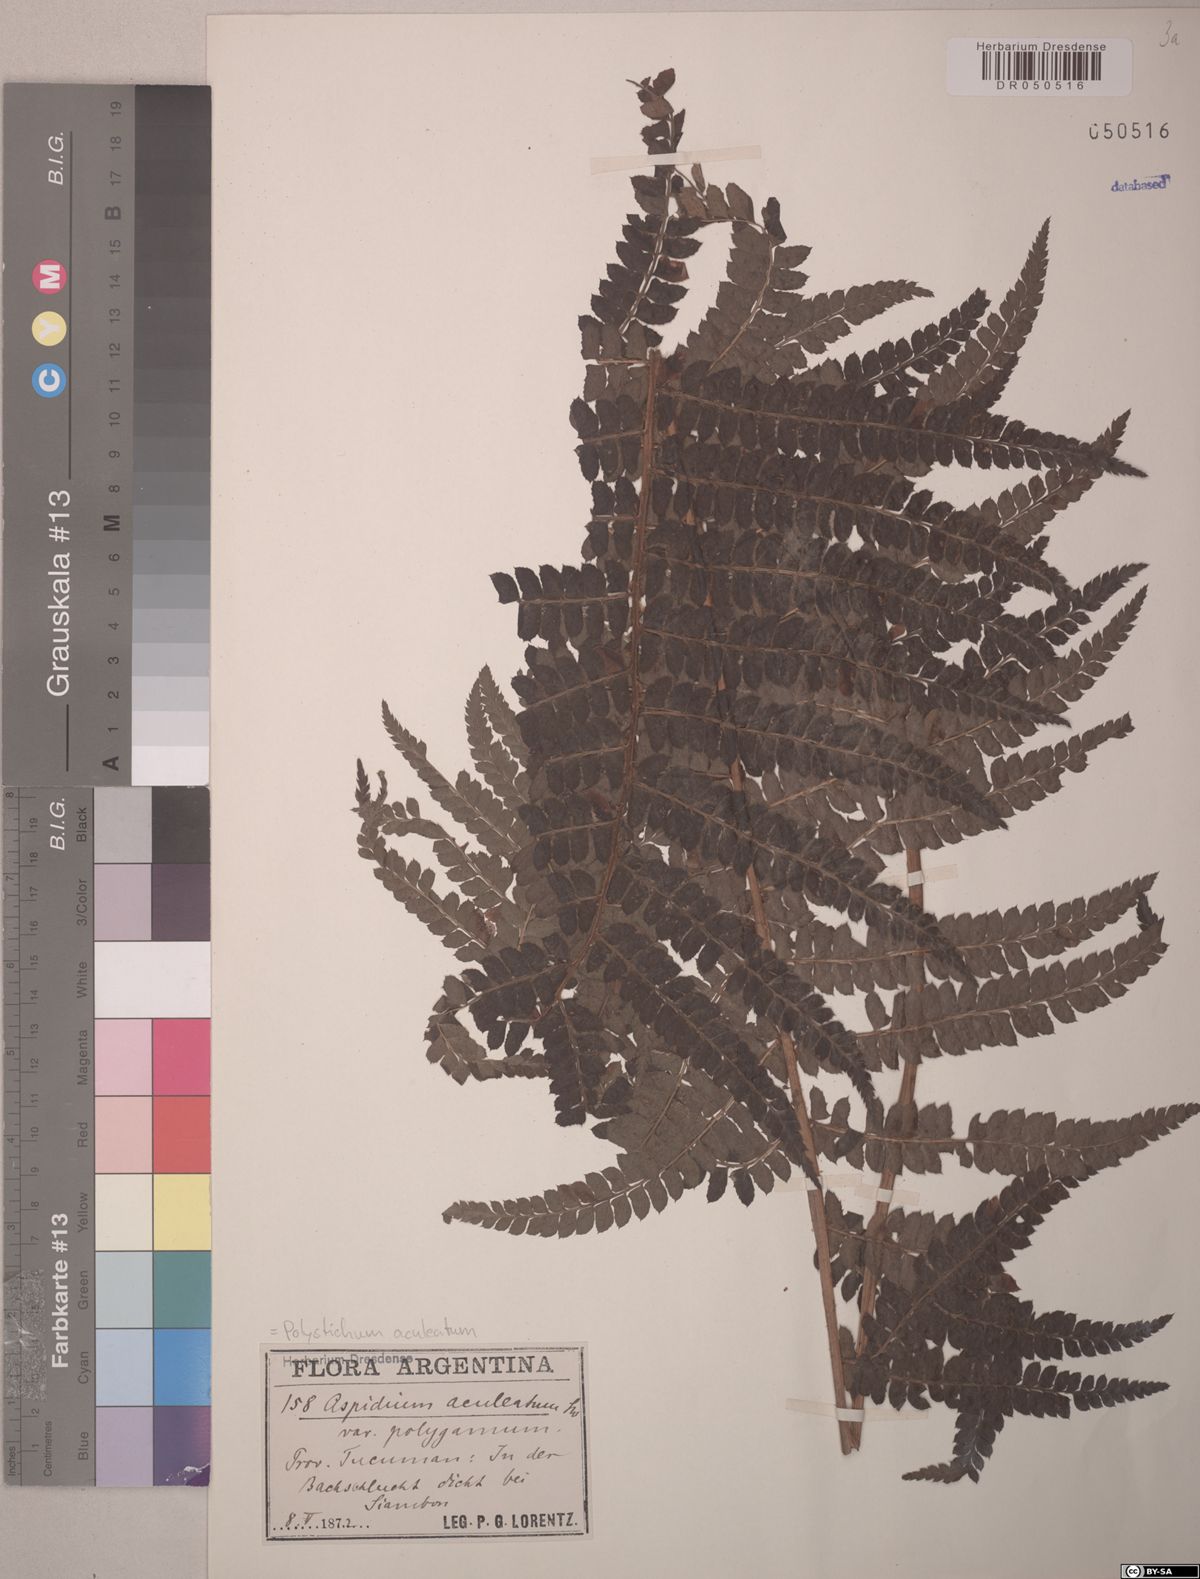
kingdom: Plantae
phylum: Tracheophyta
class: Polypodiopsida
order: Polypodiales
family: Dryopteridaceae
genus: Polystichum
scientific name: Polystichum montevidense
